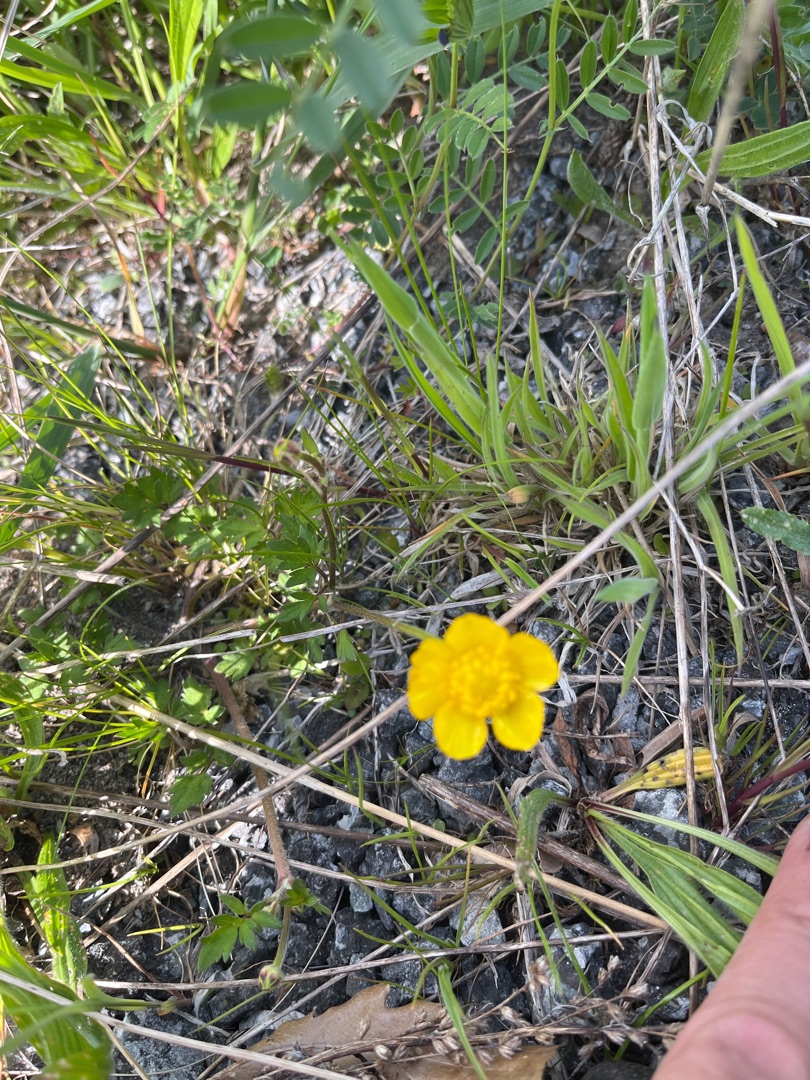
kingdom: Plantae
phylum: Tracheophyta
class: Magnoliopsida
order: Ranunculales
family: Ranunculaceae
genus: Ranunculus
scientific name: Ranunculus repens
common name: Lav ranunkel
